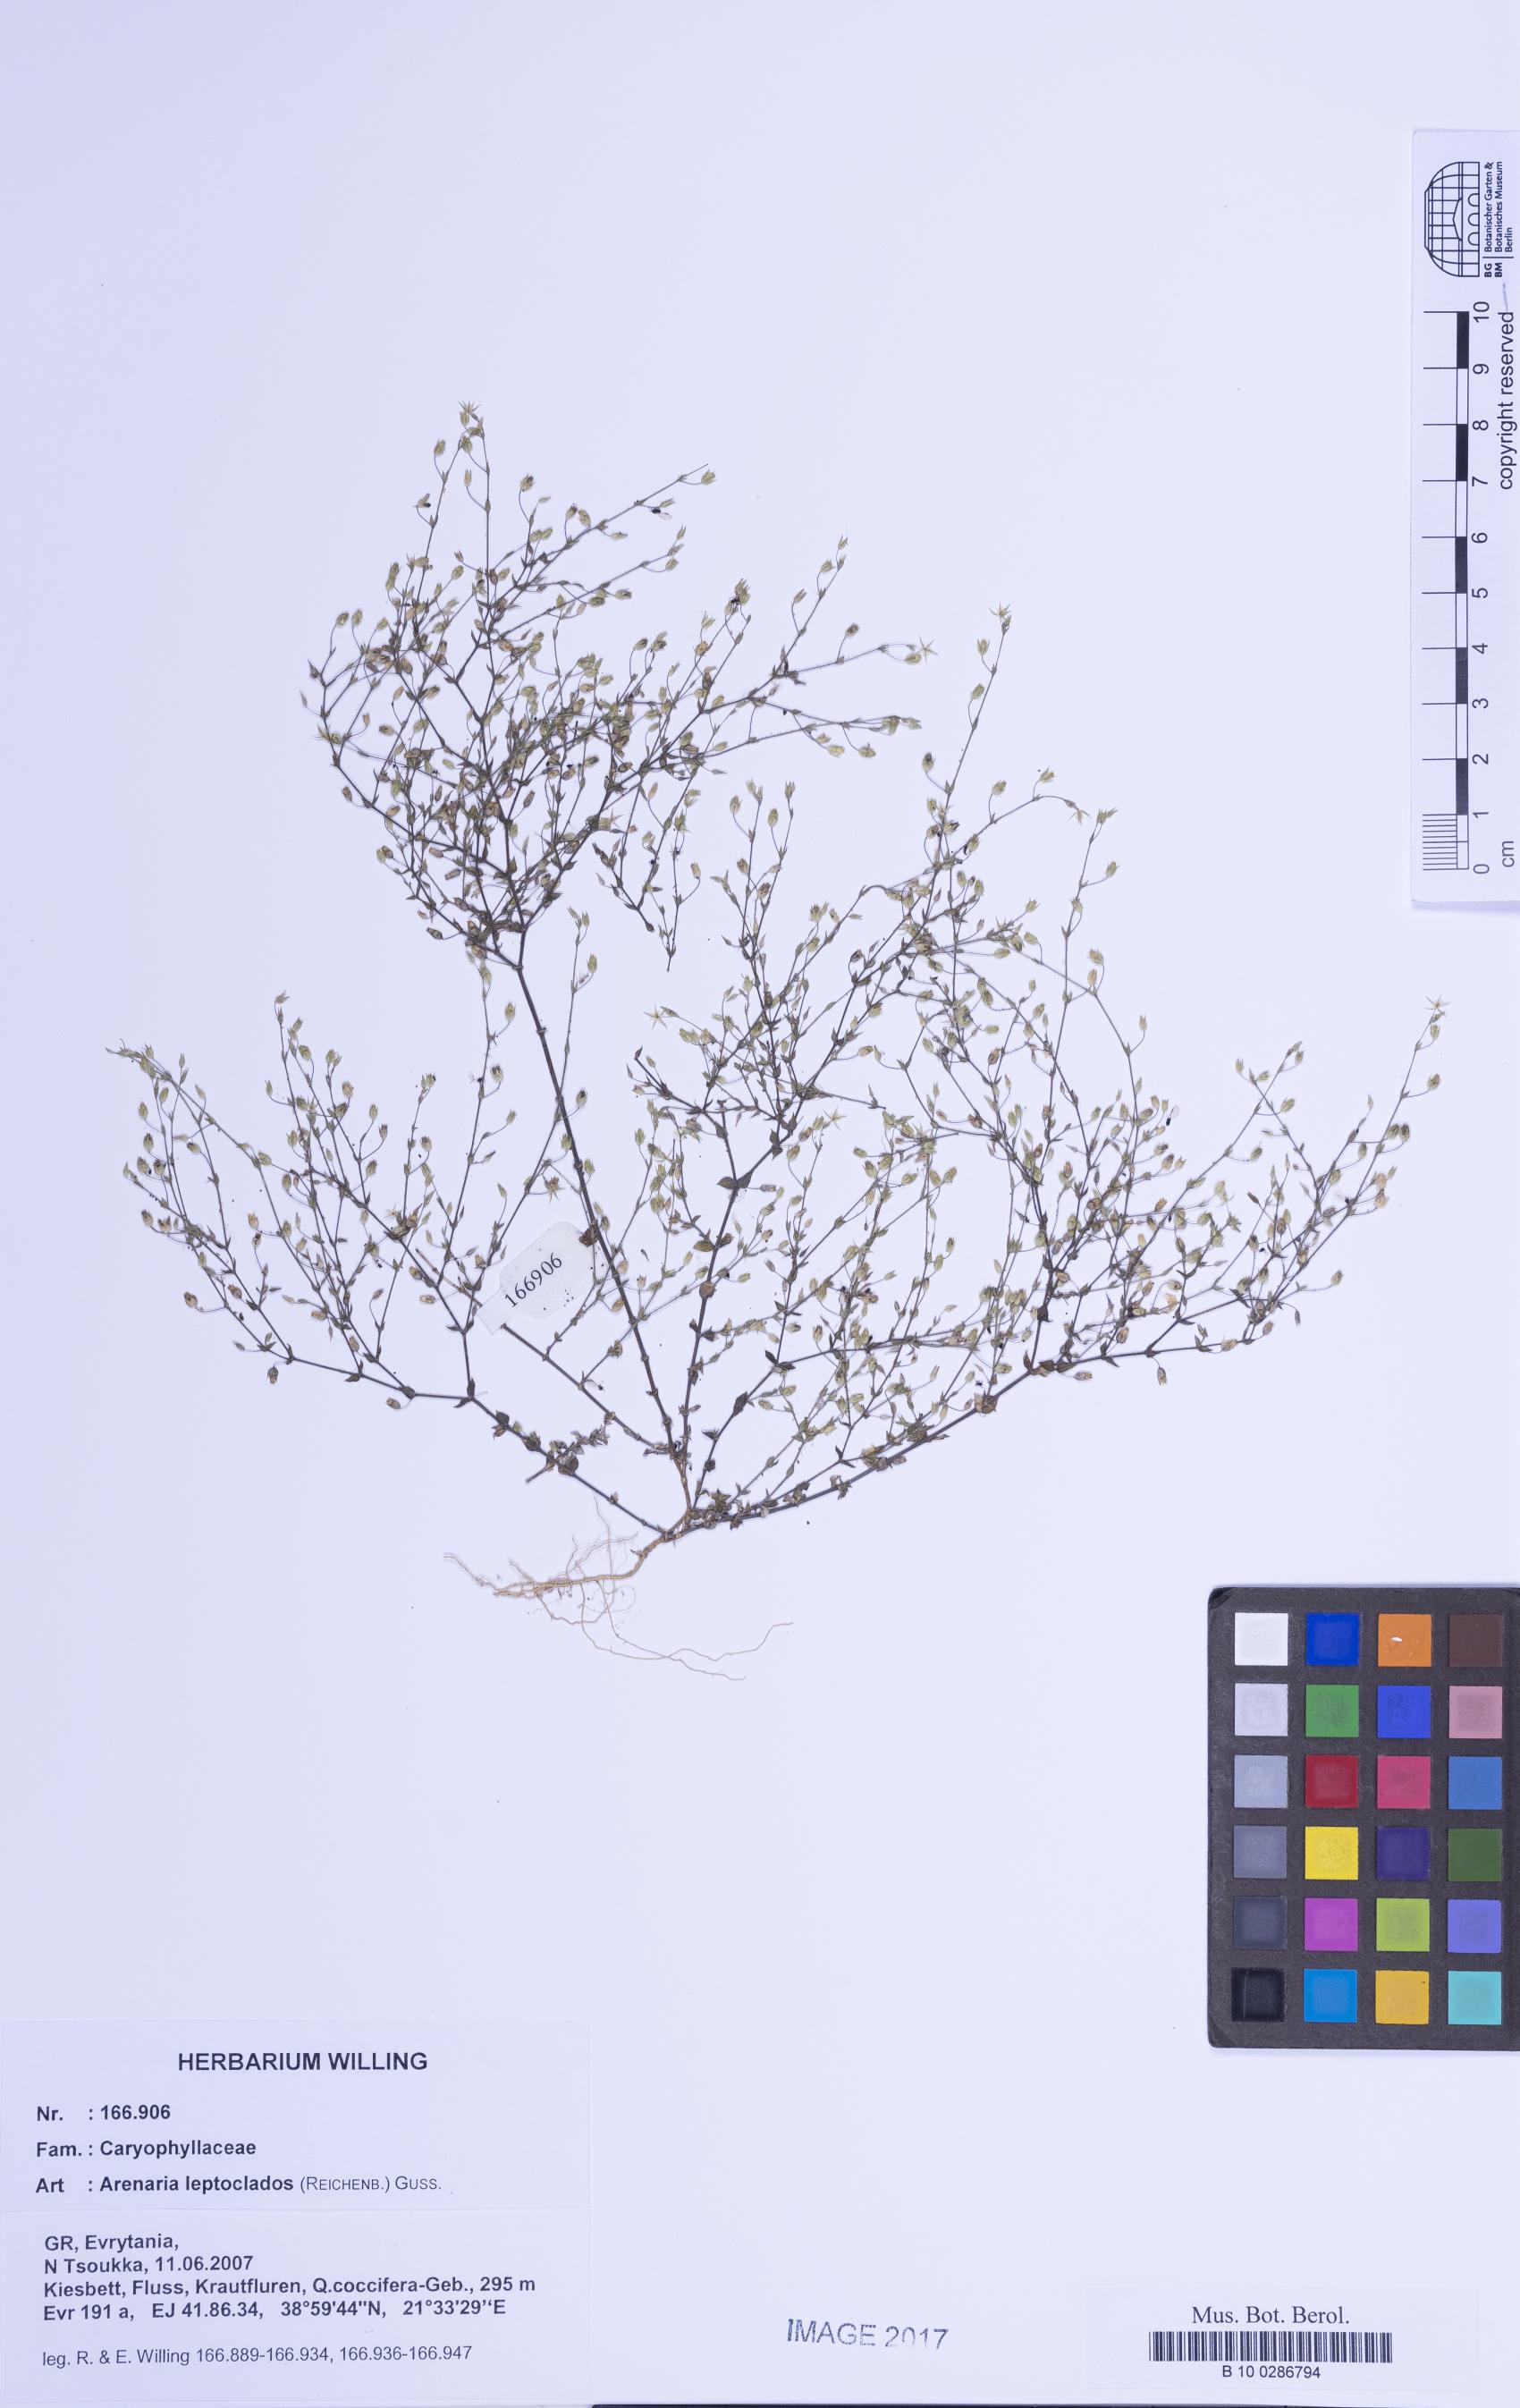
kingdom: Plantae
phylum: Tracheophyta
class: Magnoliopsida
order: Caryophyllales
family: Caryophyllaceae
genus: Arenaria
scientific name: Arenaria leptoclados
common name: Thyme-leaved sandwort
